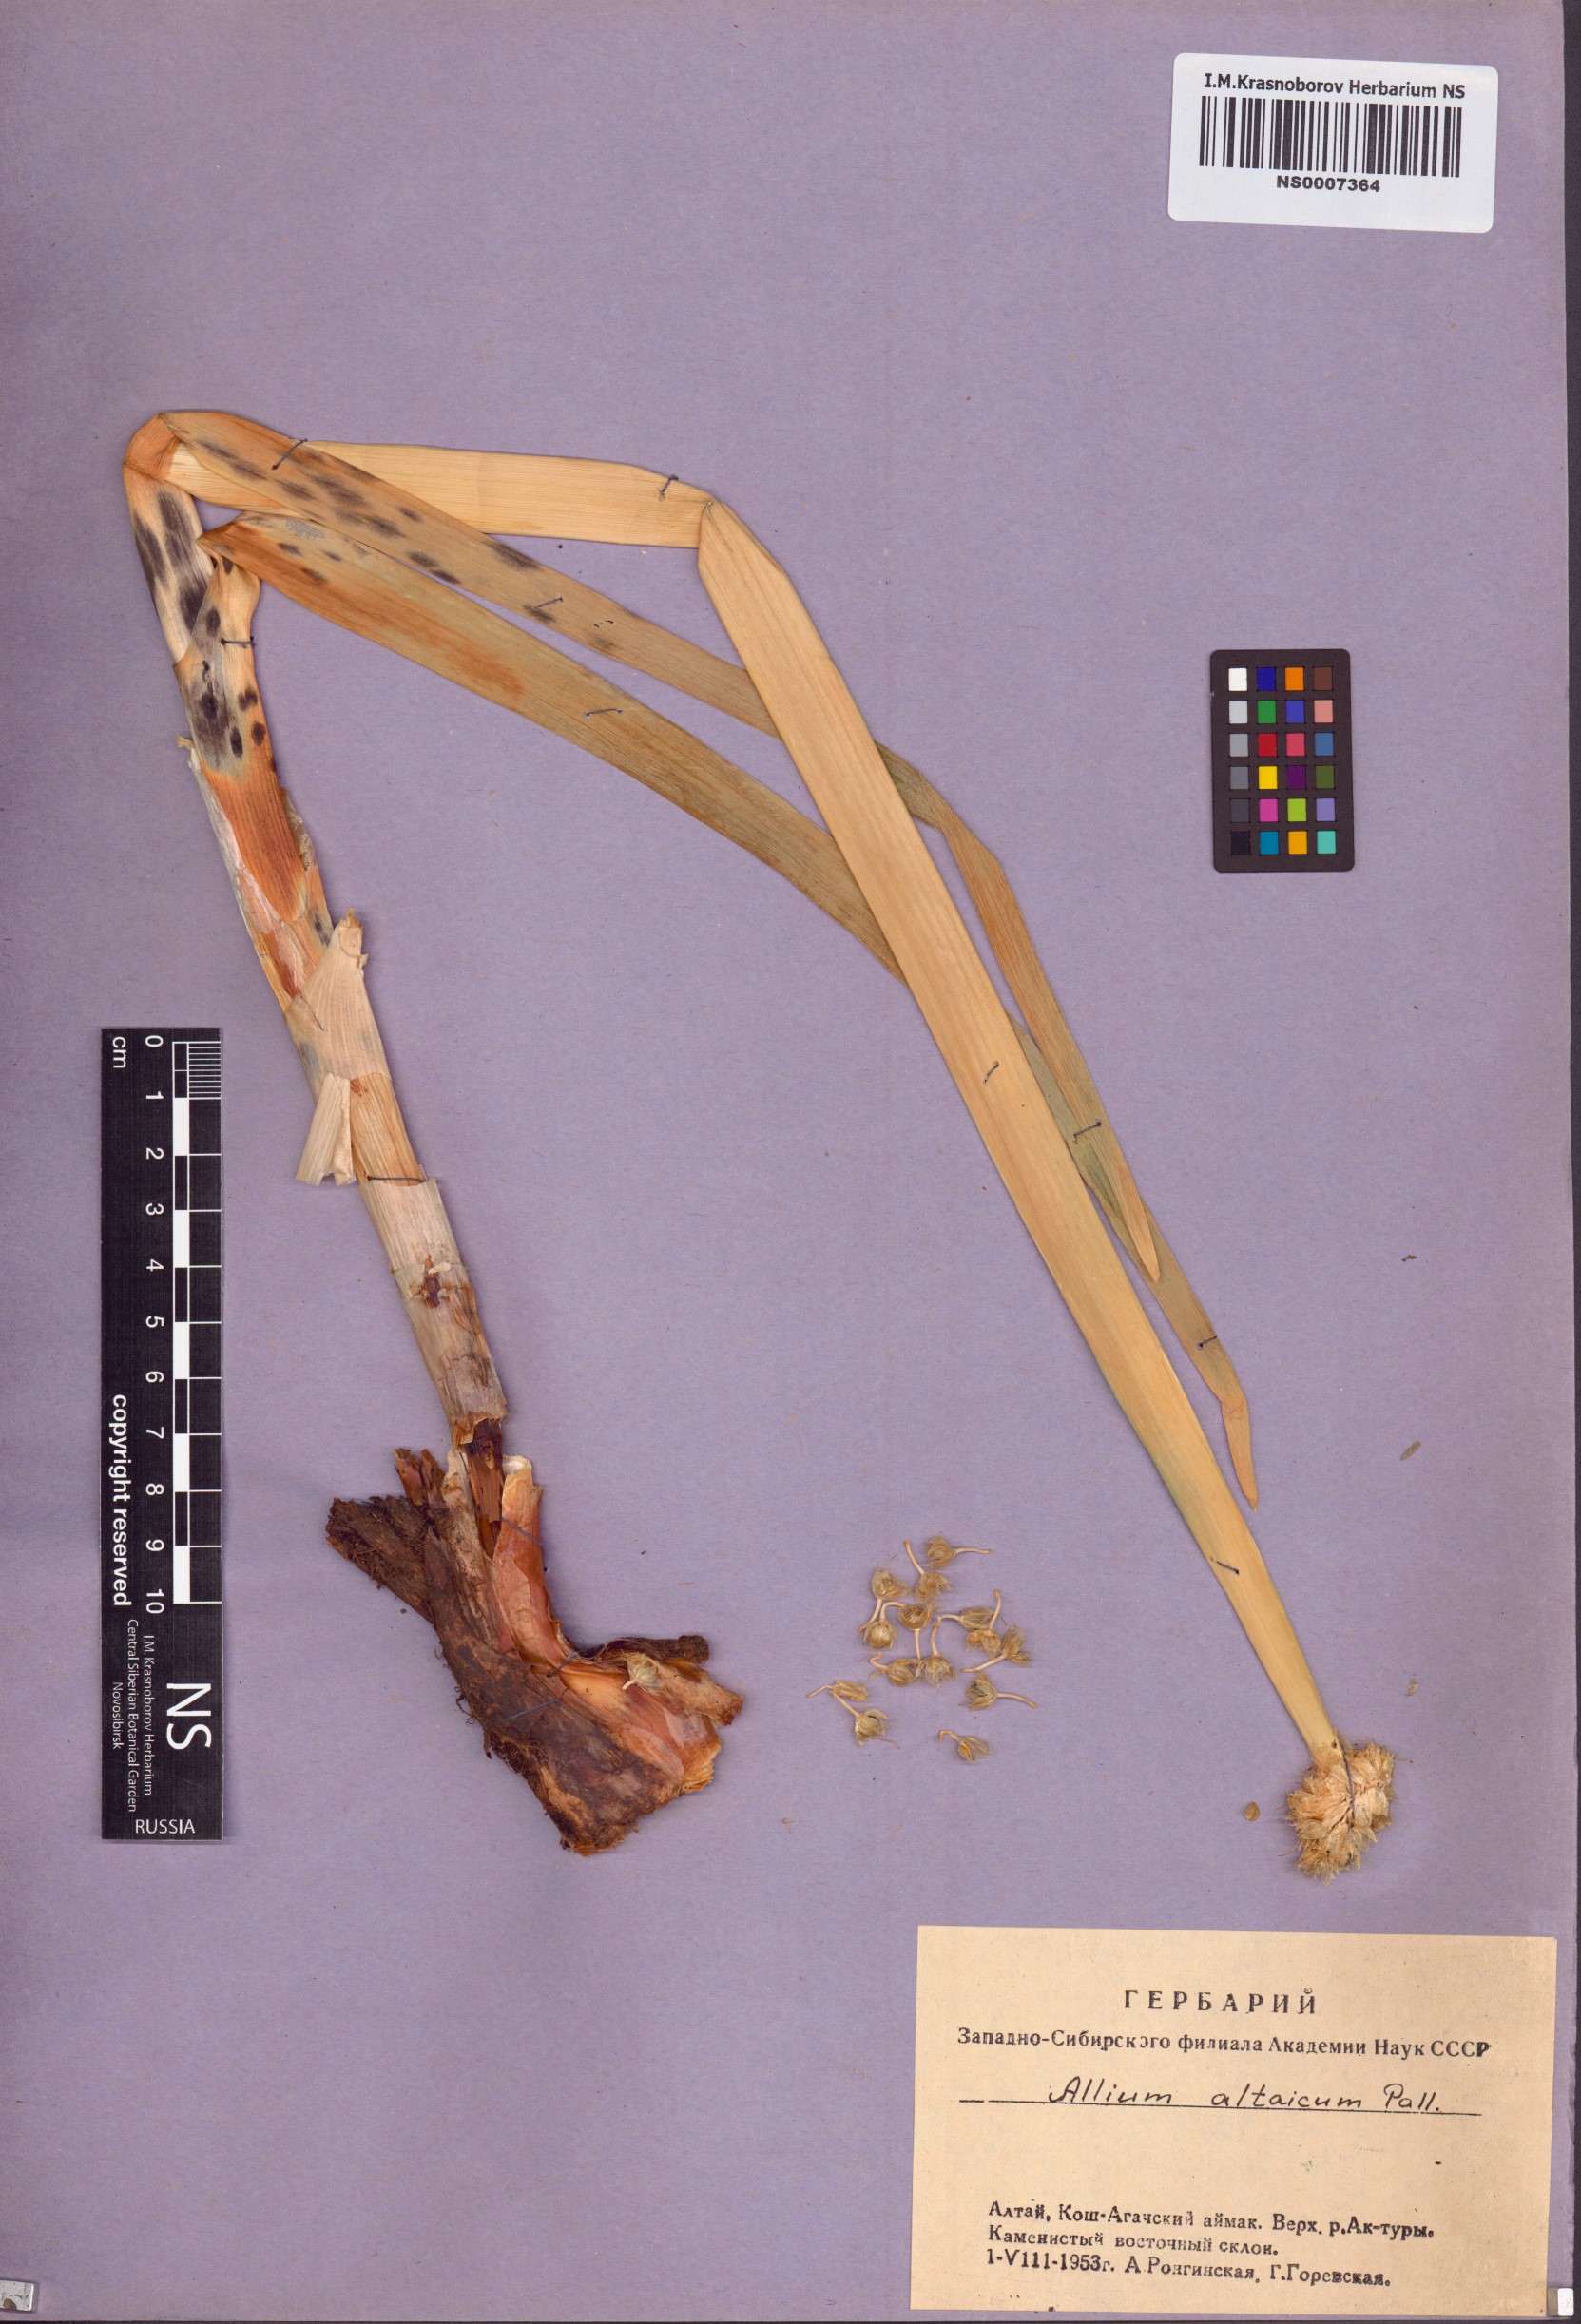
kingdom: Plantae
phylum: Tracheophyta
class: Liliopsida
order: Asparagales
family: Amaryllidaceae
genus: Allium
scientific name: Allium altaicum
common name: Altai onion
